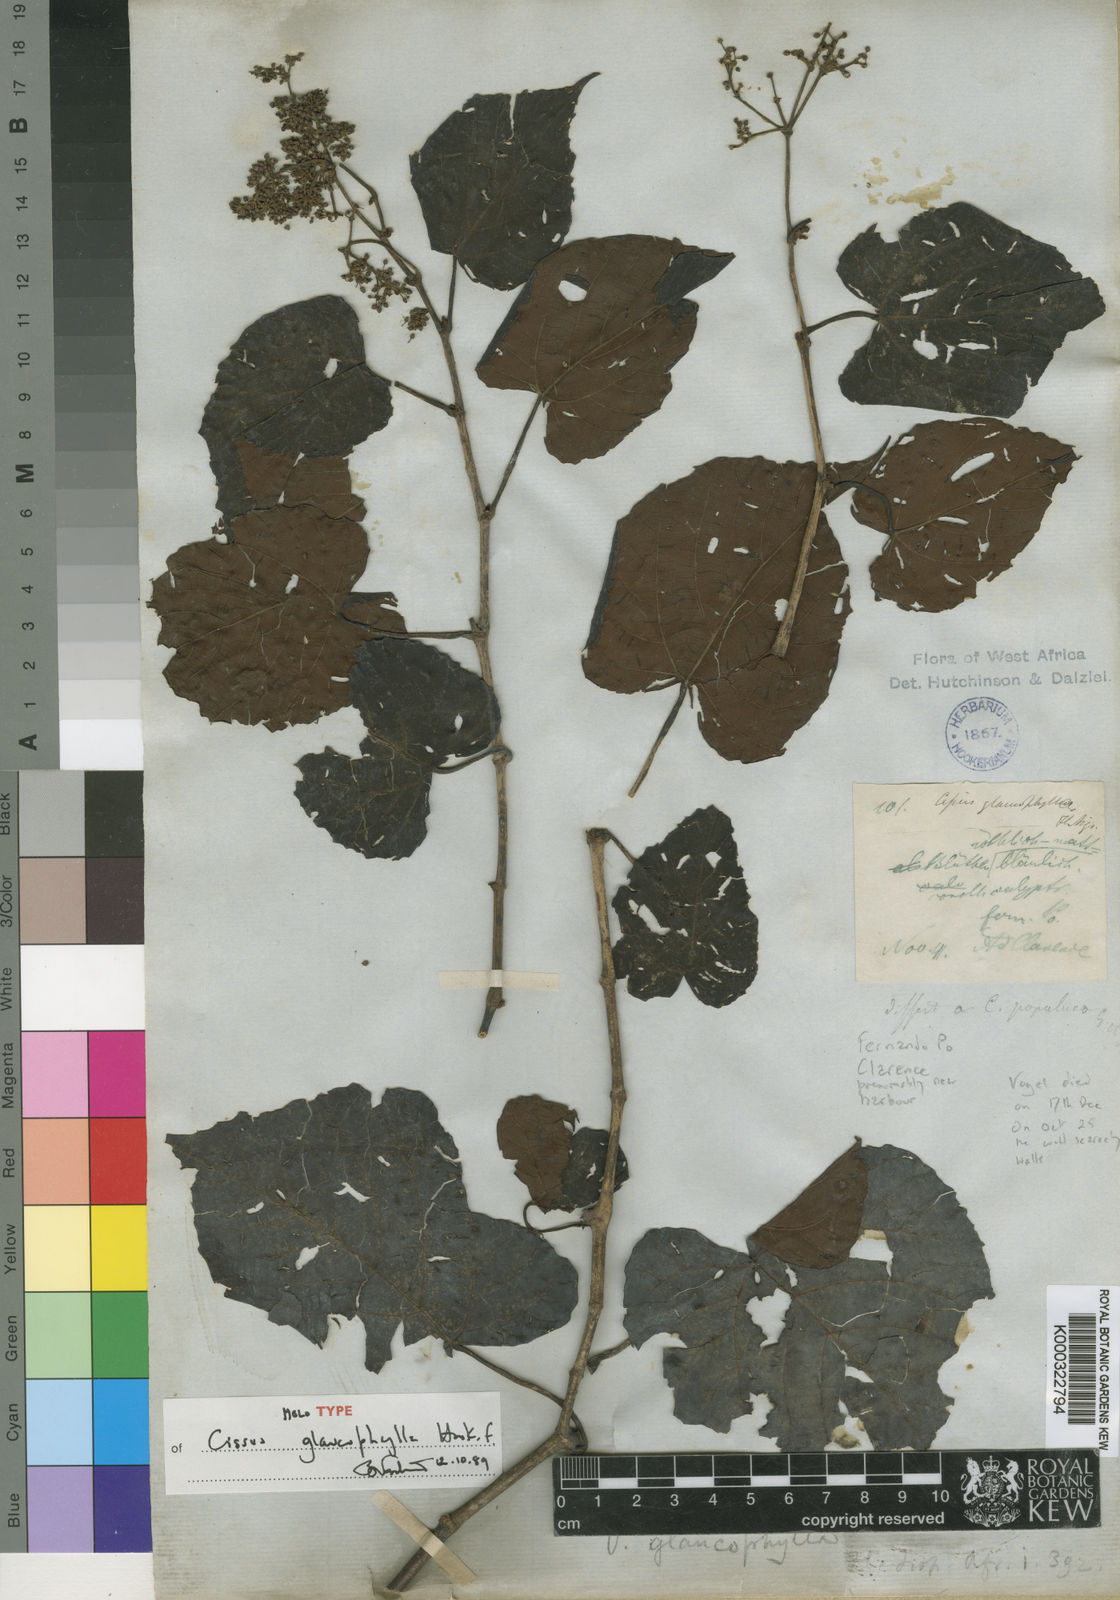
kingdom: Plantae
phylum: Tracheophyta
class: Magnoliopsida
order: Vitales
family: Vitaceae
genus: Cissus
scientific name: Cissus glaucophylla
